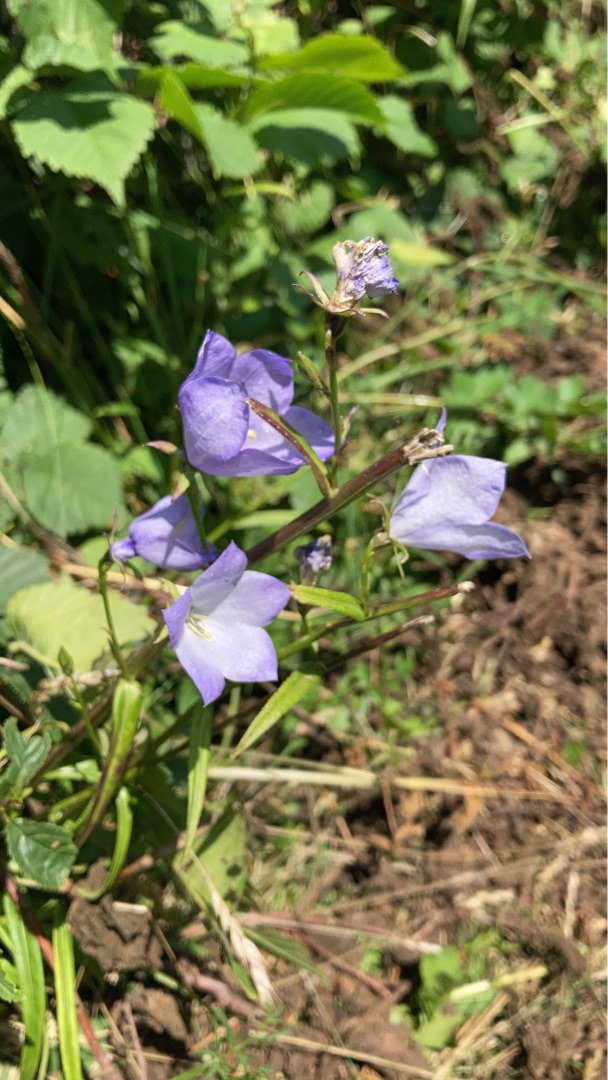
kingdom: Plantae
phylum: Tracheophyta
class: Magnoliopsida
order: Asterales
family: Campanulaceae
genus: Campanula
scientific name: Campanula persicifolia
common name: Smalbladet klokke
